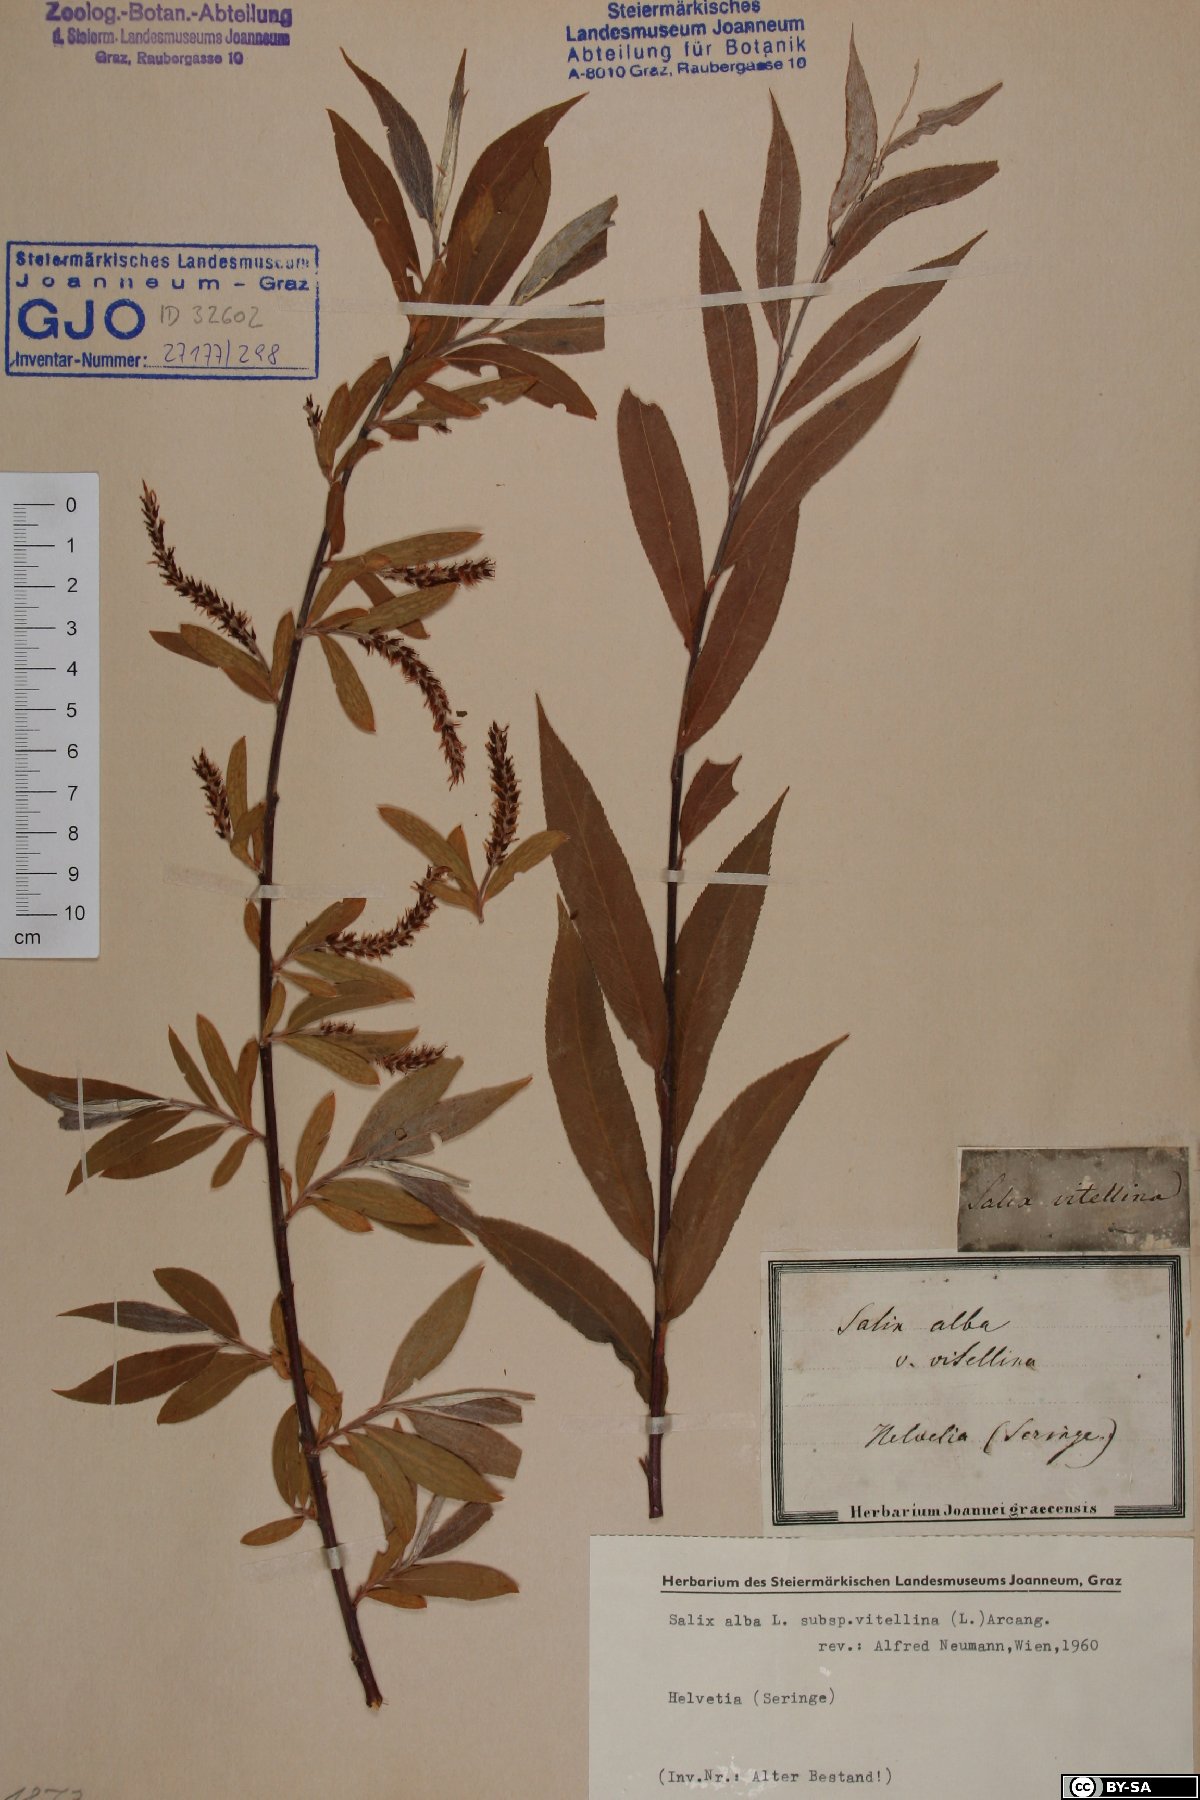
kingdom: Plantae
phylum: Tracheophyta
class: Magnoliopsida
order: Malpighiales
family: Salicaceae
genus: Salix
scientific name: Salix alba
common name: White willow
